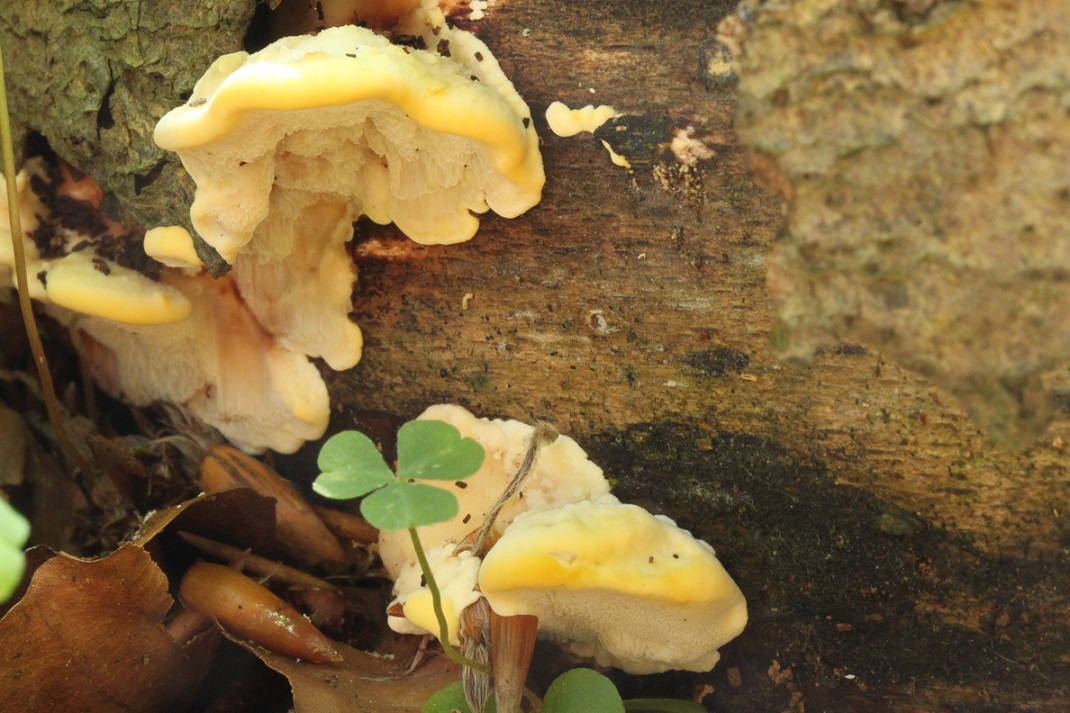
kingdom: Fungi
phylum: Basidiomycota
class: Agaricomycetes
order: Polyporales
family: Steccherinaceae
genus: Antrodiella
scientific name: Antrodiella serpula
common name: gulrandet elastikporesvamp
